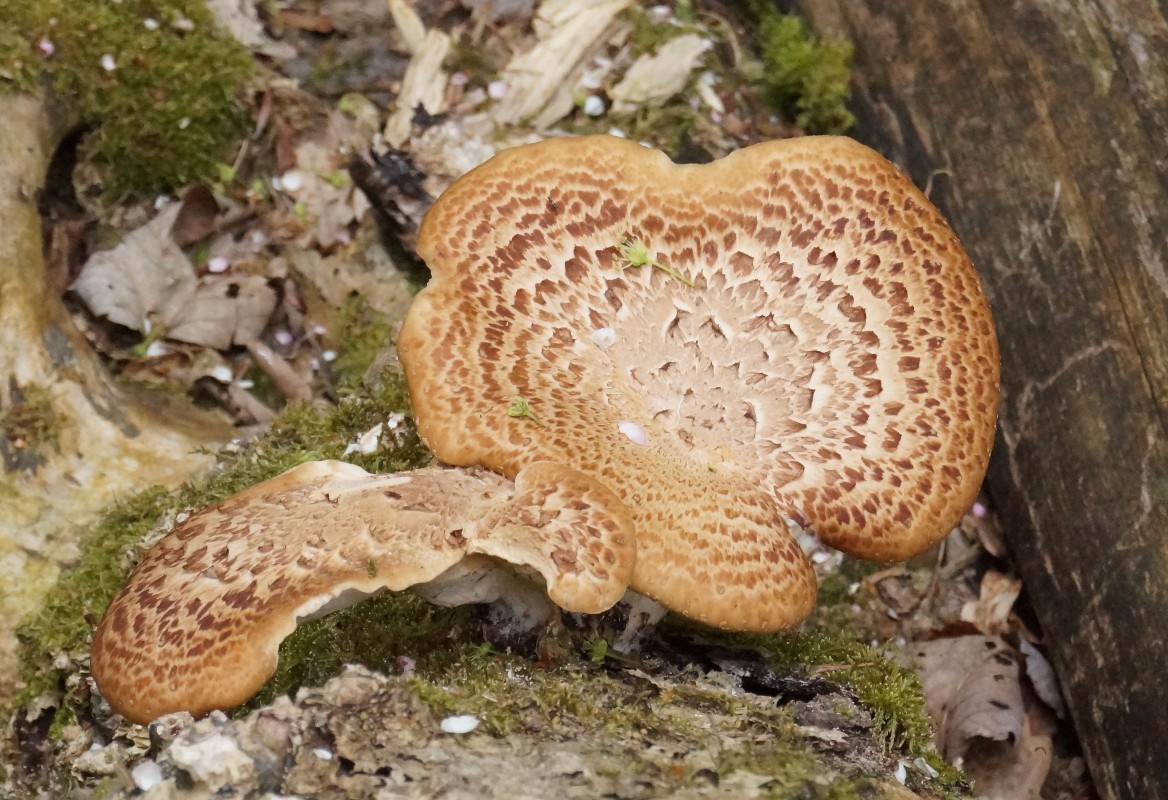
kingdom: Fungi
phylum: Basidiomycota
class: Agaricomycetes
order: Polyporales
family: Polyporaceae
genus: Cerioporus
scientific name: Cerioporus squamosus
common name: skællet stilkporesvamp
